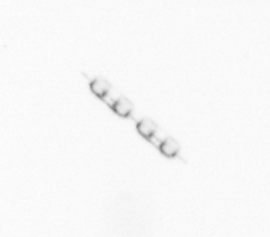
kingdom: Chromista
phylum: Ochrophyta
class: Bacillariophyceae
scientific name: Bacillariophyceae
